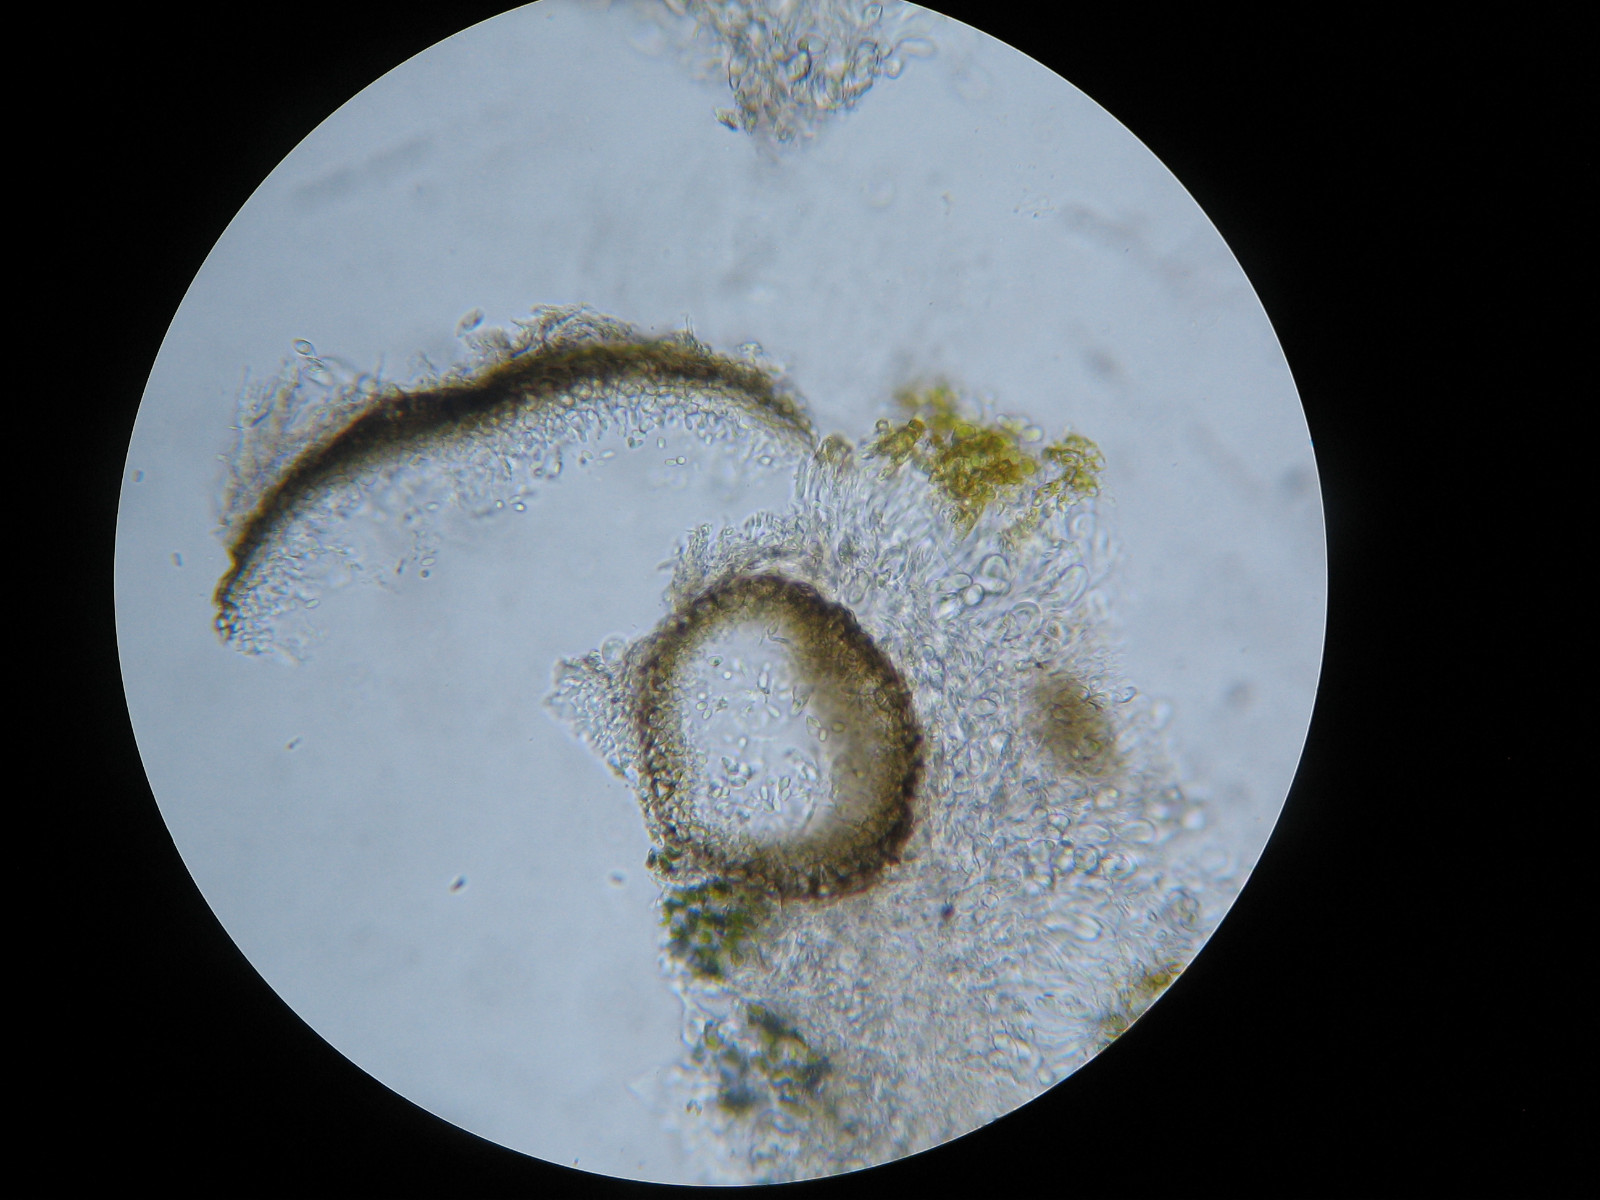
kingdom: Fungi
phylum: Ascomycota
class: Dothideomycetes
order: Pleosporales
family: Phaeosphaeriaceae
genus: Didymocyrtis
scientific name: Didymocyrtis epiphyscia
